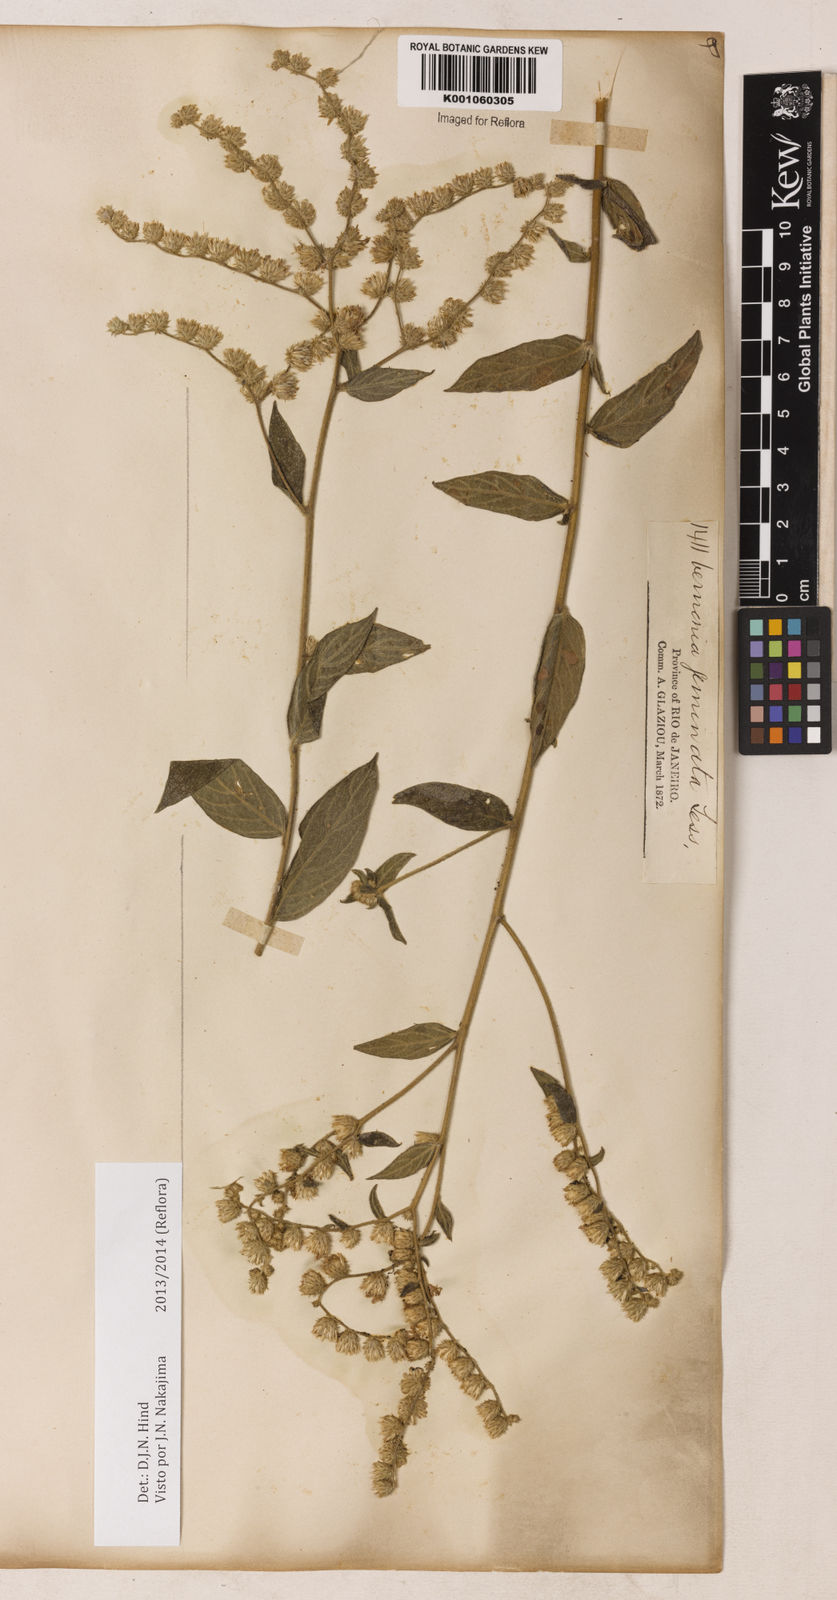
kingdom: Plantae
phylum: Tracheophyta
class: Magnoliopsida
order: Asterales
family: Asteraceae
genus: Lepidaploa
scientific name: Lepidaploa canescens
